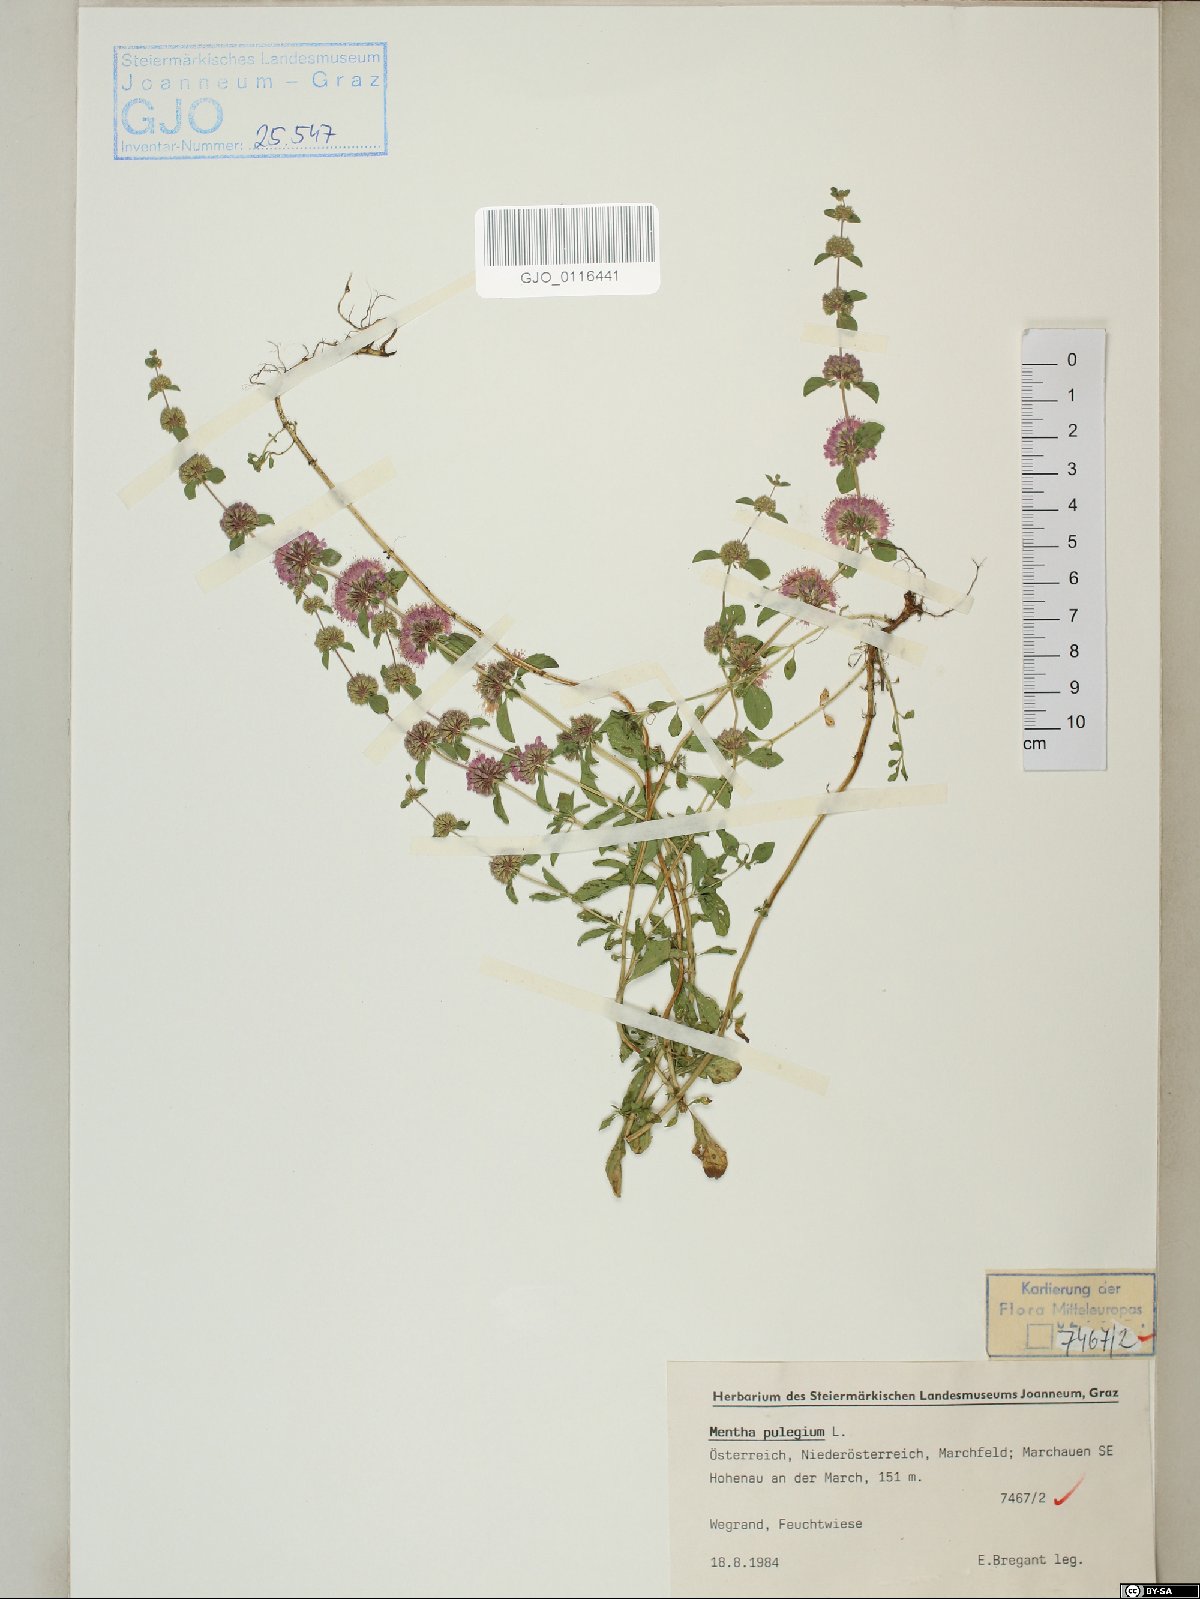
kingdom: Plantae
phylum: Tracheophyta
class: Magnoliopsida
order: Lamiales
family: Lamiaceae
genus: Mentha
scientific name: Mentha pulegium
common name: Pennyroyal
